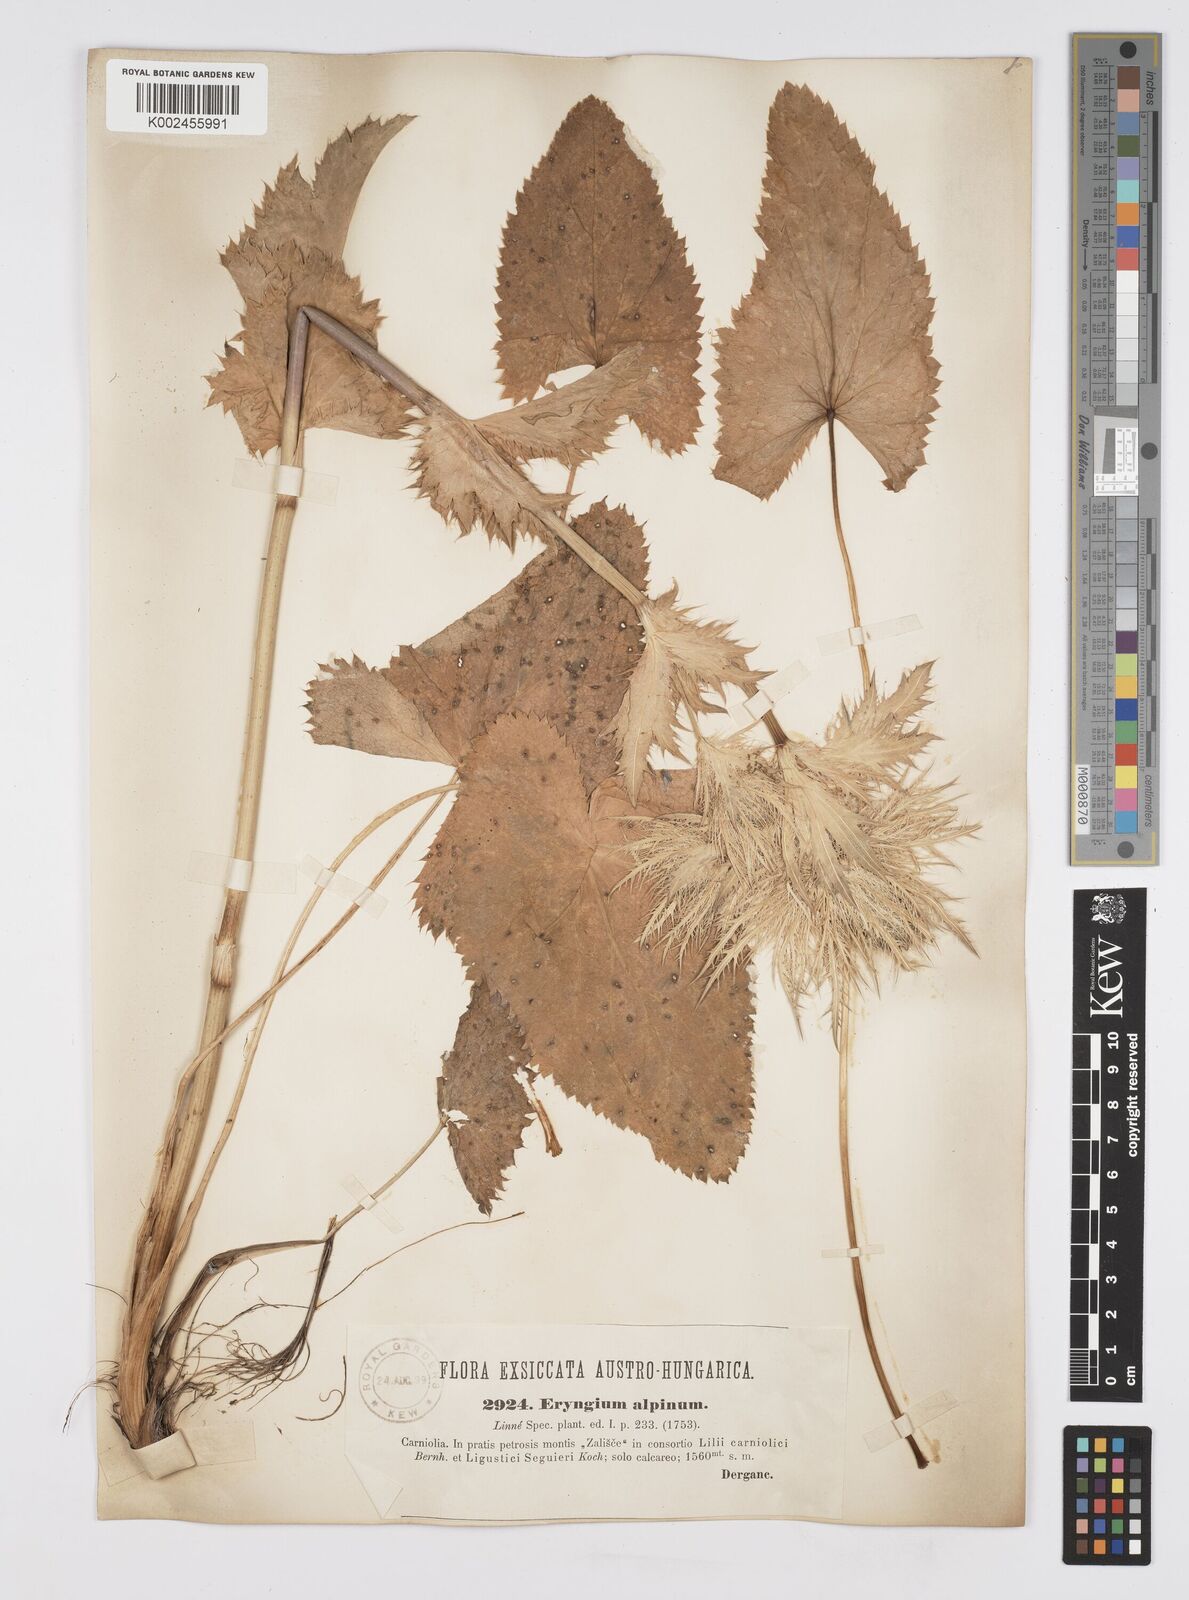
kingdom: Plantae
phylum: Tracheophyta
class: Magnoliopsida
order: Apiales
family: Apiaceae
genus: Eryngium
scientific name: Eryngium alpinum
